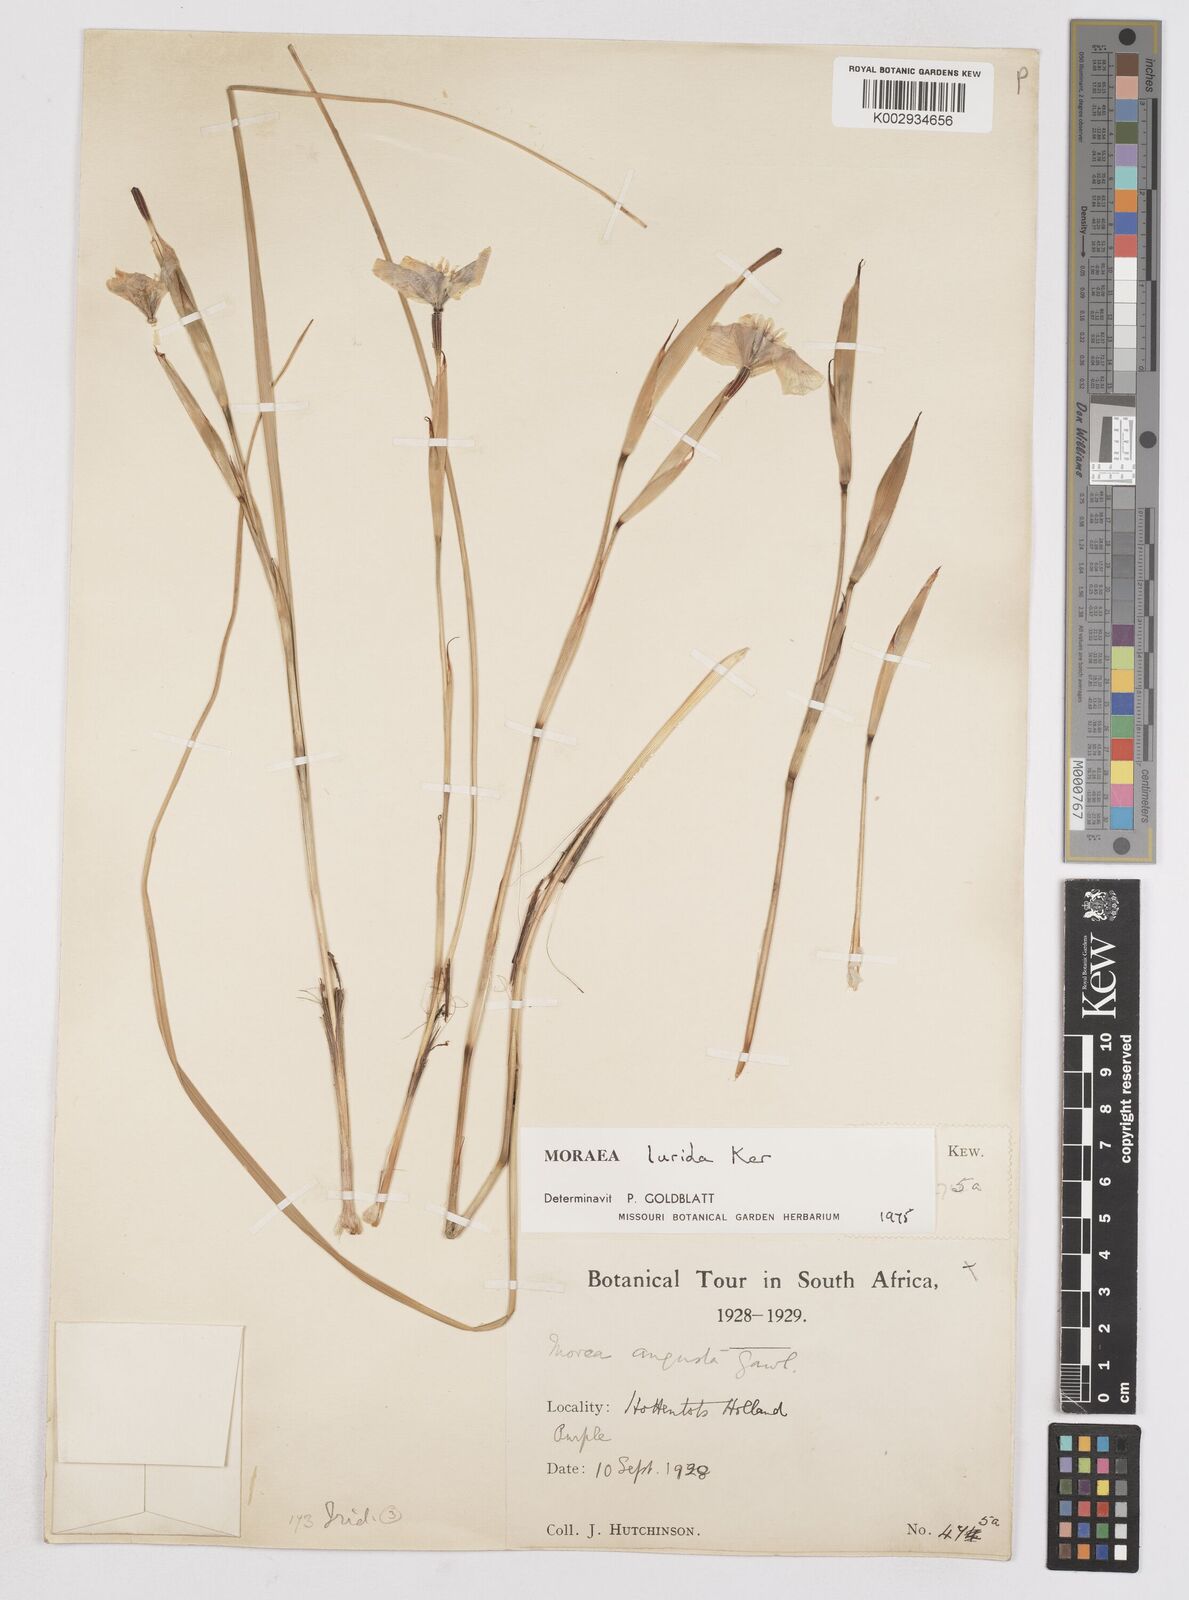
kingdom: Plantae
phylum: Tracheophyta
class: Liliopsida
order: Asparagales
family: Iridaceae
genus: Moraea
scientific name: Moraea lurida
